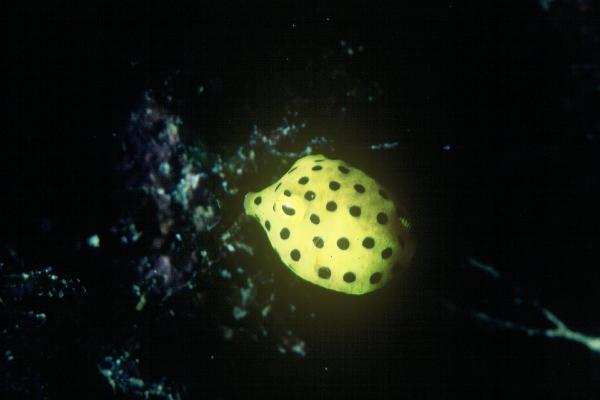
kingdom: Animalia
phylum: Chordata
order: Tetraodontiformes
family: Ostraciidae
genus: Ostracion
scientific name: Ostracion cubicus
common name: Cube trunkfish
